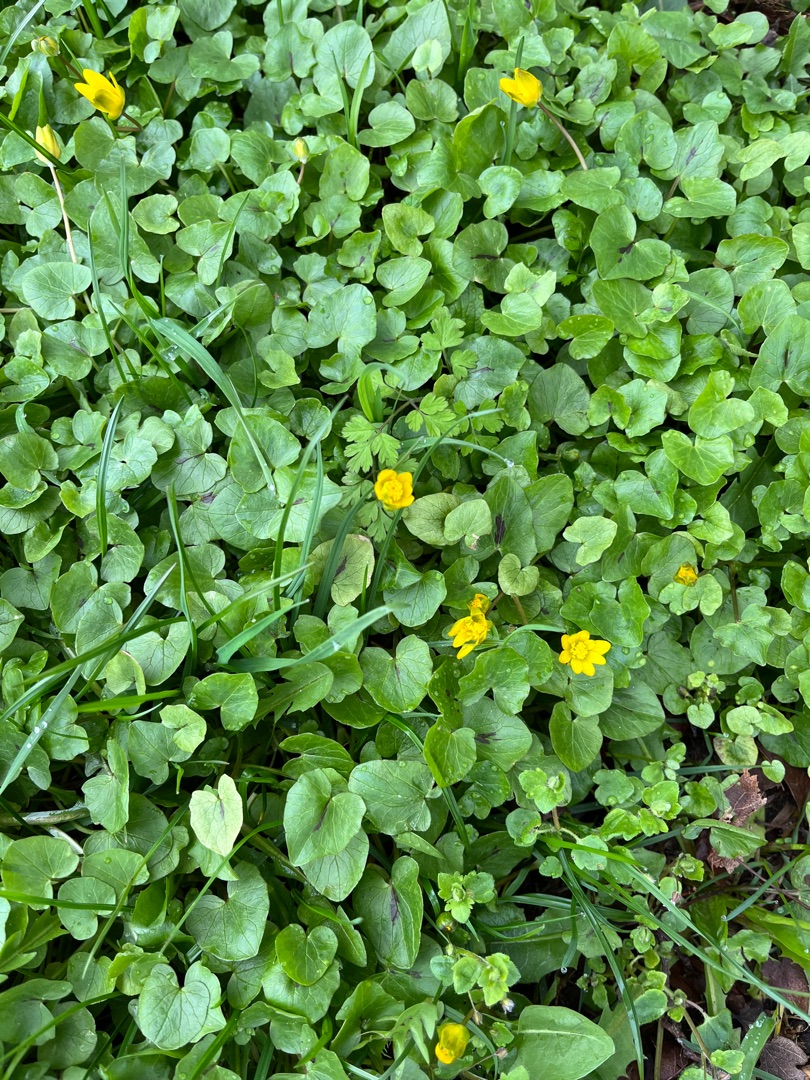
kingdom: Plantae
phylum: Tracheophyta
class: Magnoliopsida
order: Ranunculales
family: Ranunculaceae
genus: Ficaria
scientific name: Ficaria verna
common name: Vorterod
